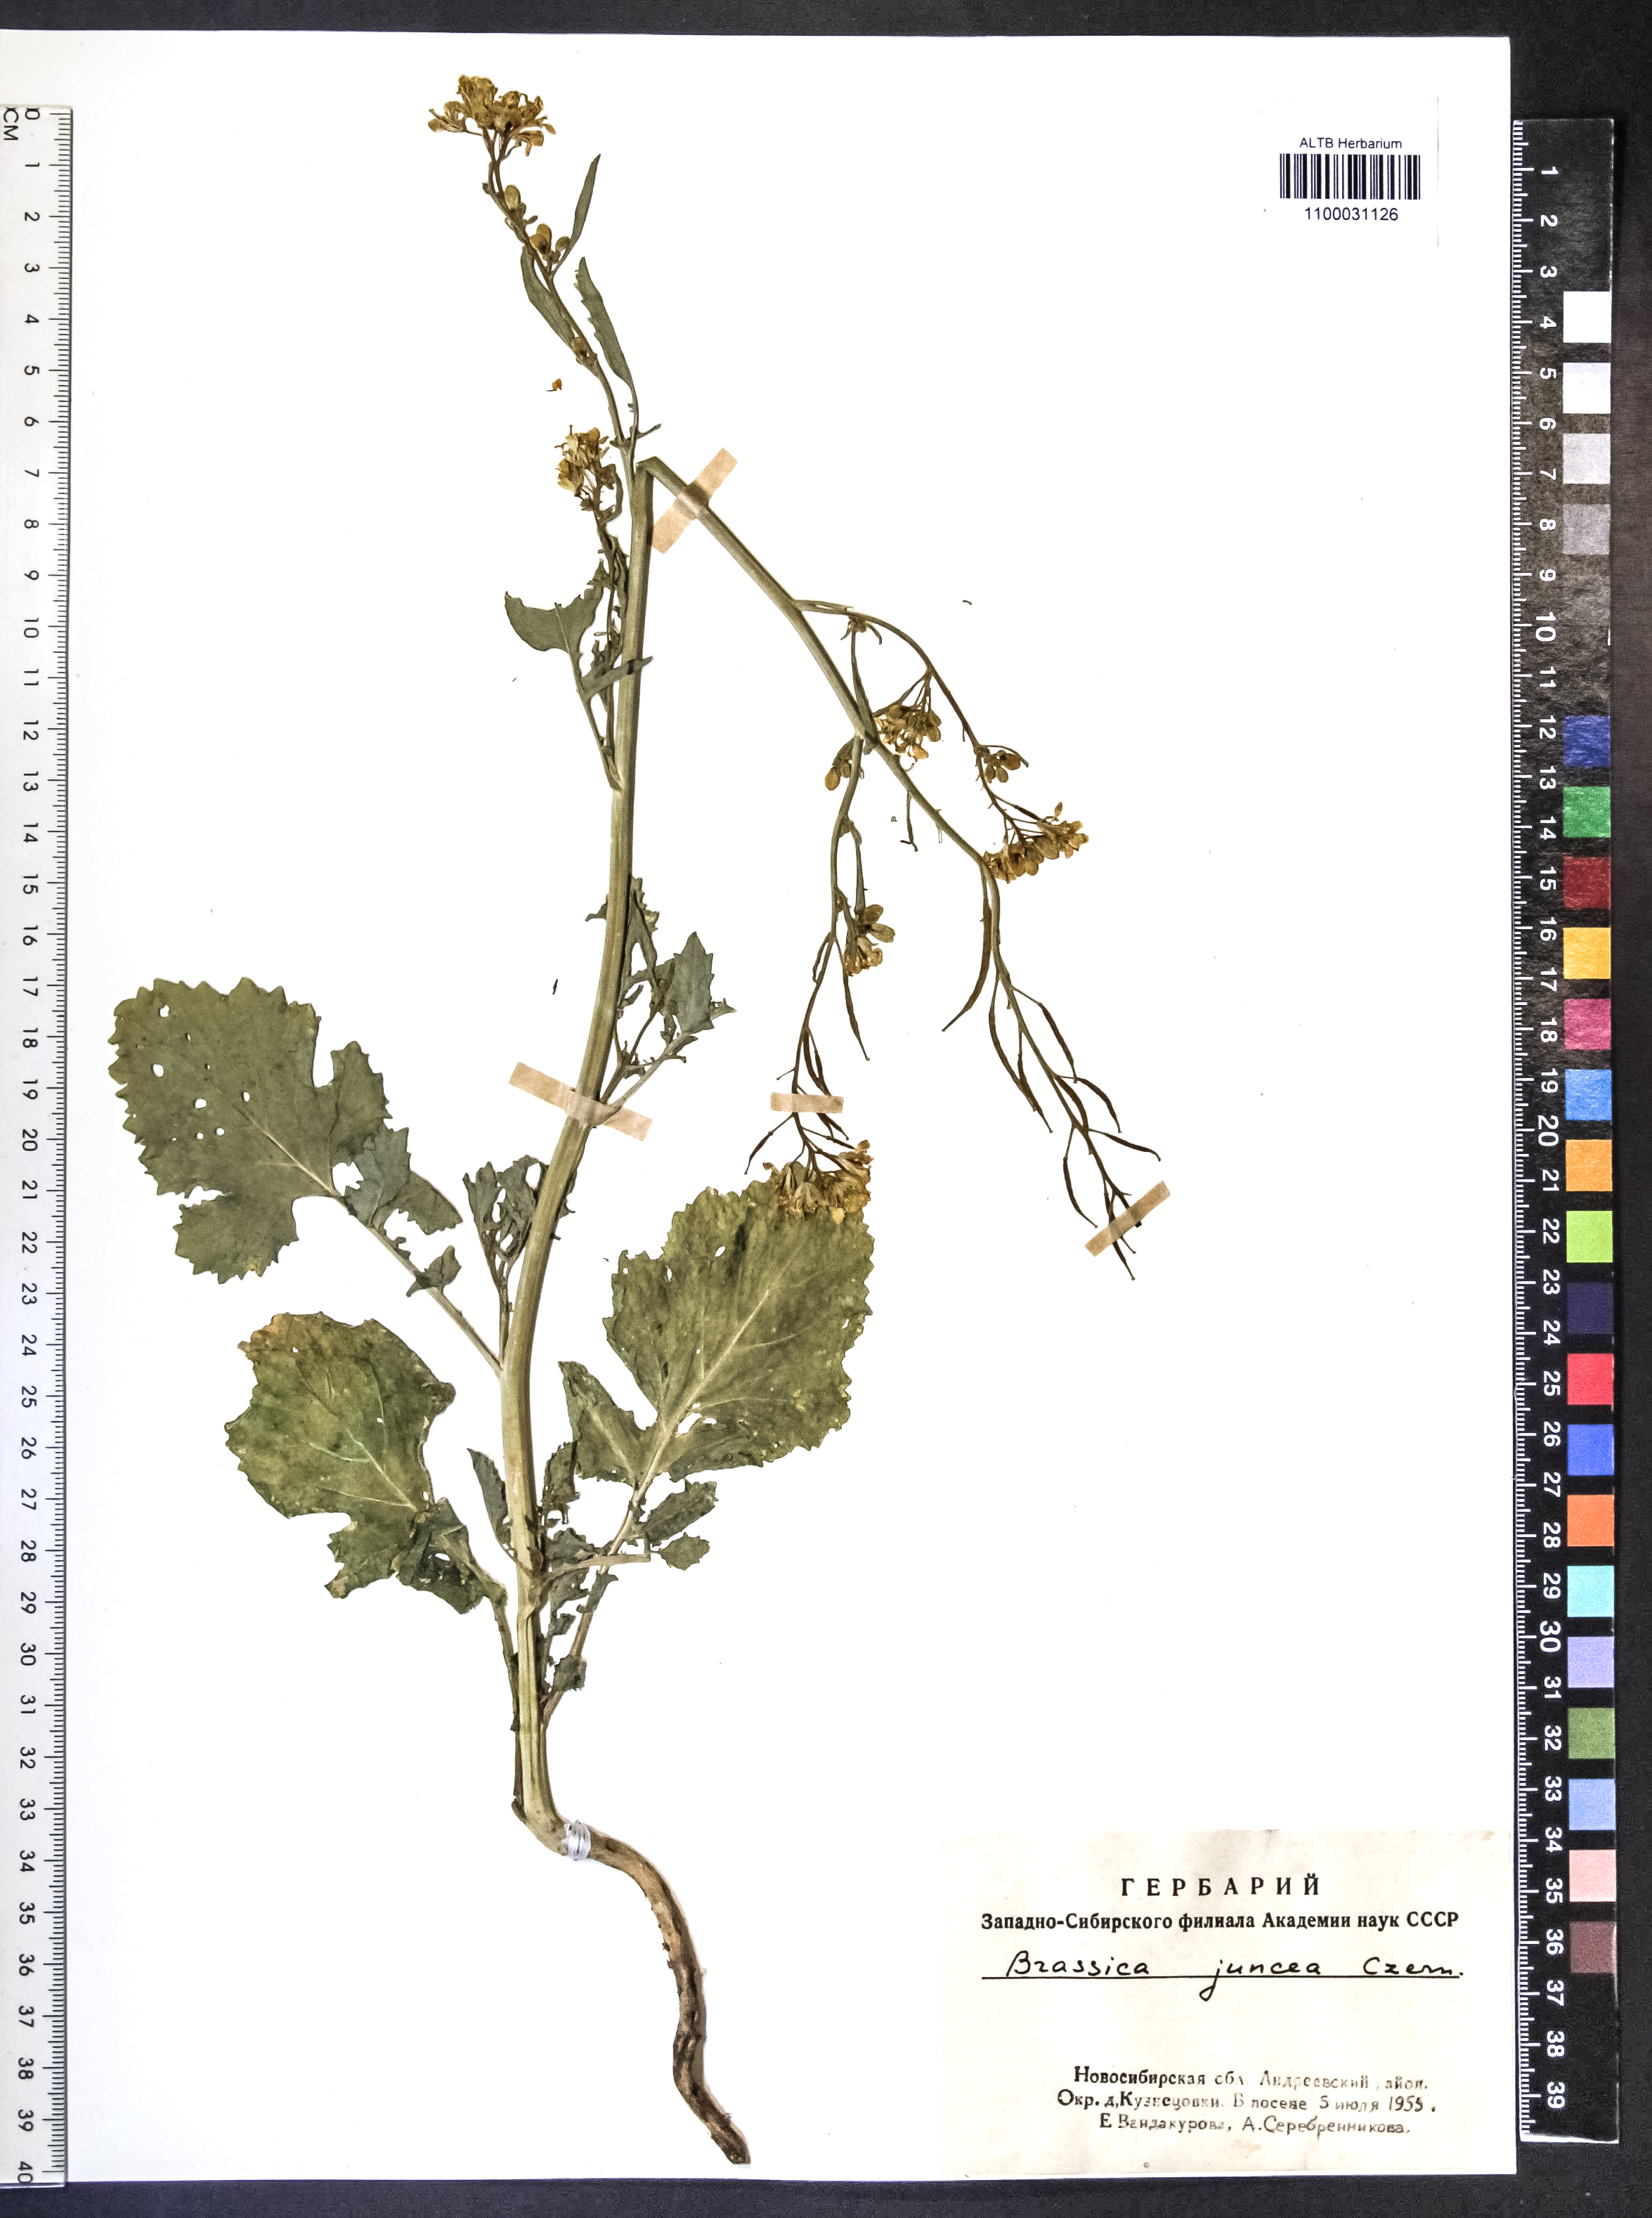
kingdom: Plantae
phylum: Tracheophyta
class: Magnoliopsida
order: Brassicales
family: Brassicaceae
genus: Brassica
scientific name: Brassica juncea
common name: Brown mustard
